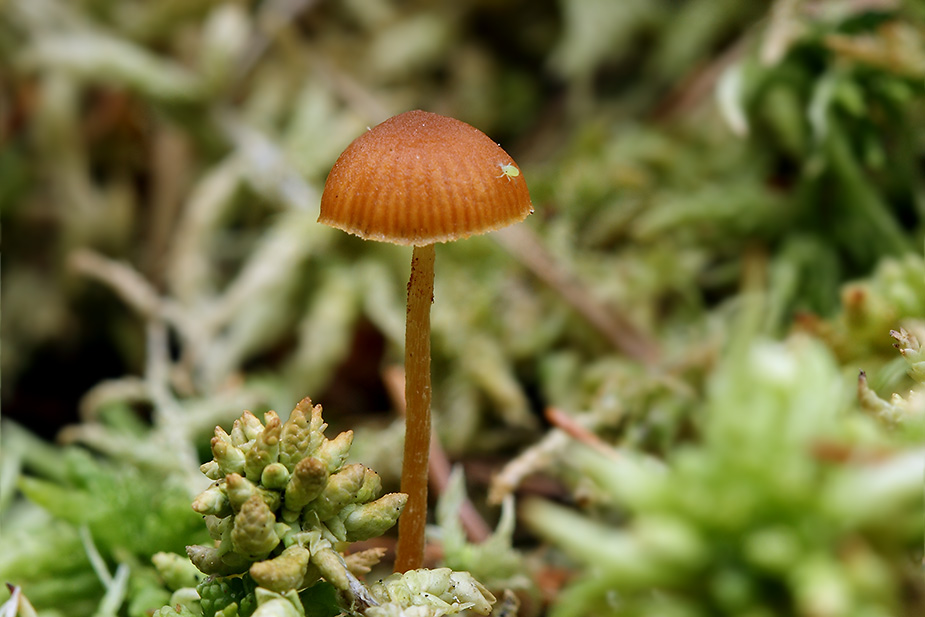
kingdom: Fungi
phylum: Basidiomycota
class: Agaricomycetes
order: Agaricales
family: Hymenogastraceae
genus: Galerina
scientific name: Galerina sphagnicola
